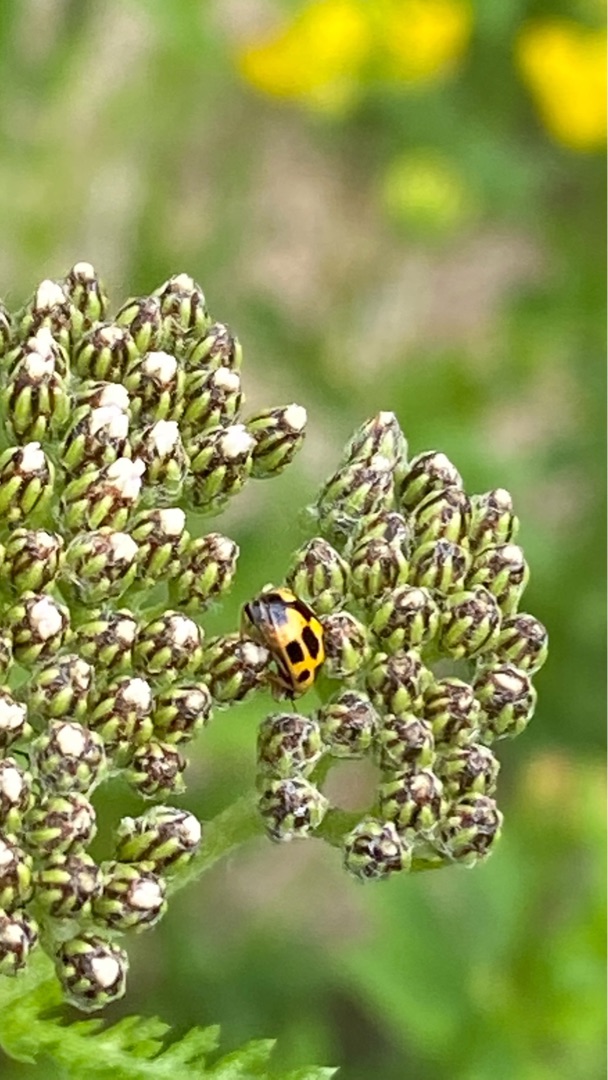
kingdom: Animalia
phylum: Arthropoda
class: Insecta
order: Coleoptera
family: Coccinellidae
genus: Propylaea
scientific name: Propylaea quatuordecimpunctata
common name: Skakbræt
